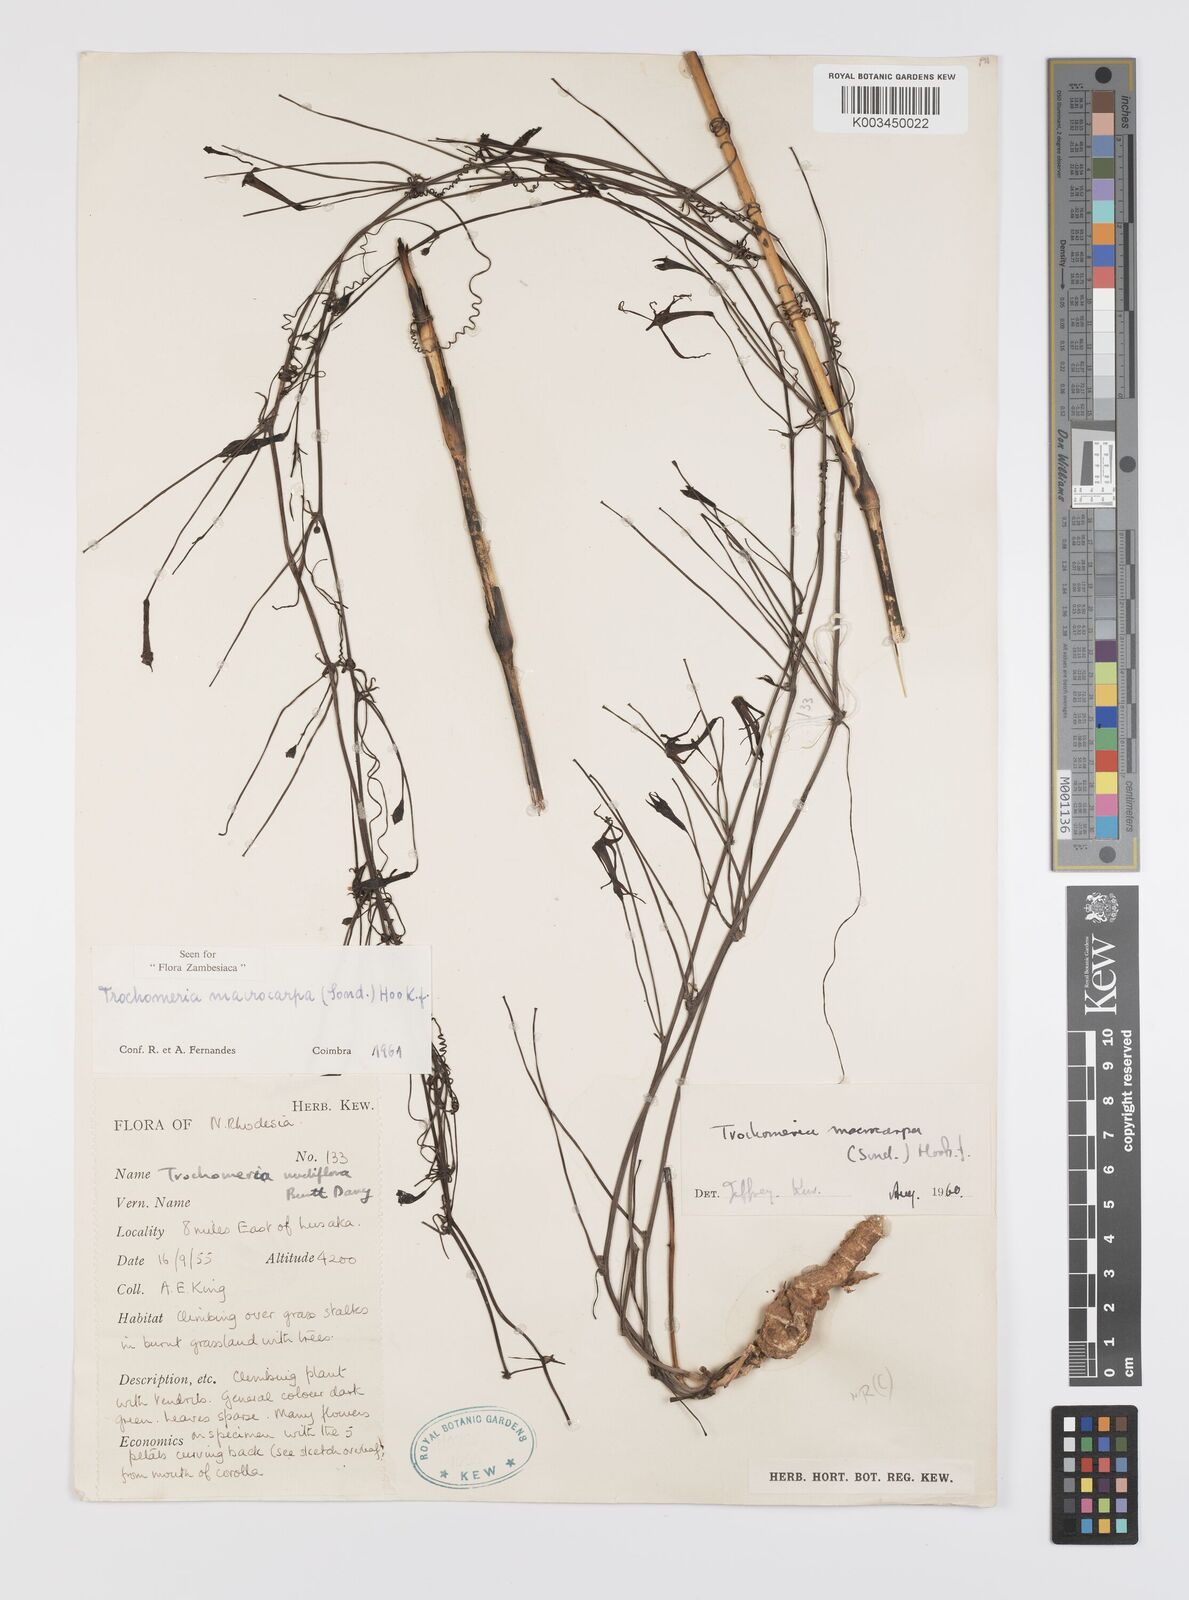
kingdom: Plantae
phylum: Tracheophyta
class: Magnoliopsida
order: Cucurbitales
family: Cucurbitaceae
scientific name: Cucurbitaceae
